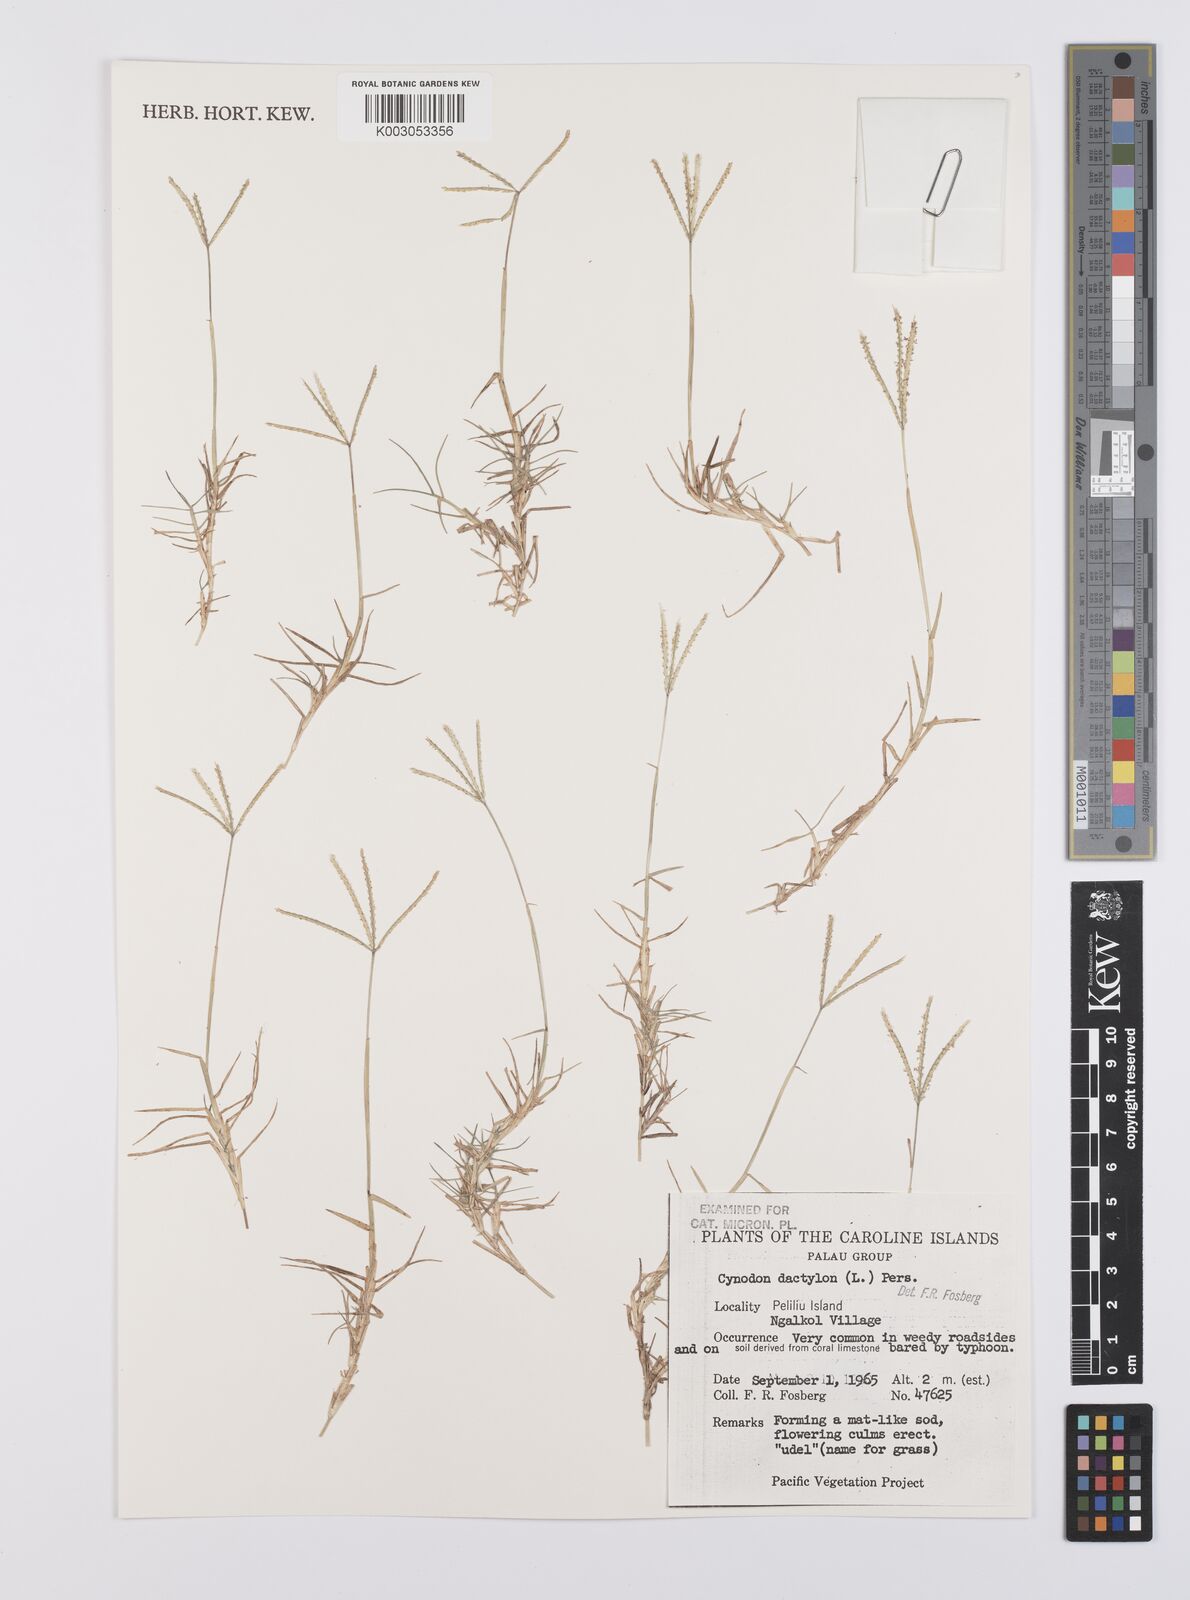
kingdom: Plantae
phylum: Tracheophyta
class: Liliopsida
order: Poales
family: Poaceae
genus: Cynodon
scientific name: Cynodon dactylon
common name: Bermuda grass
